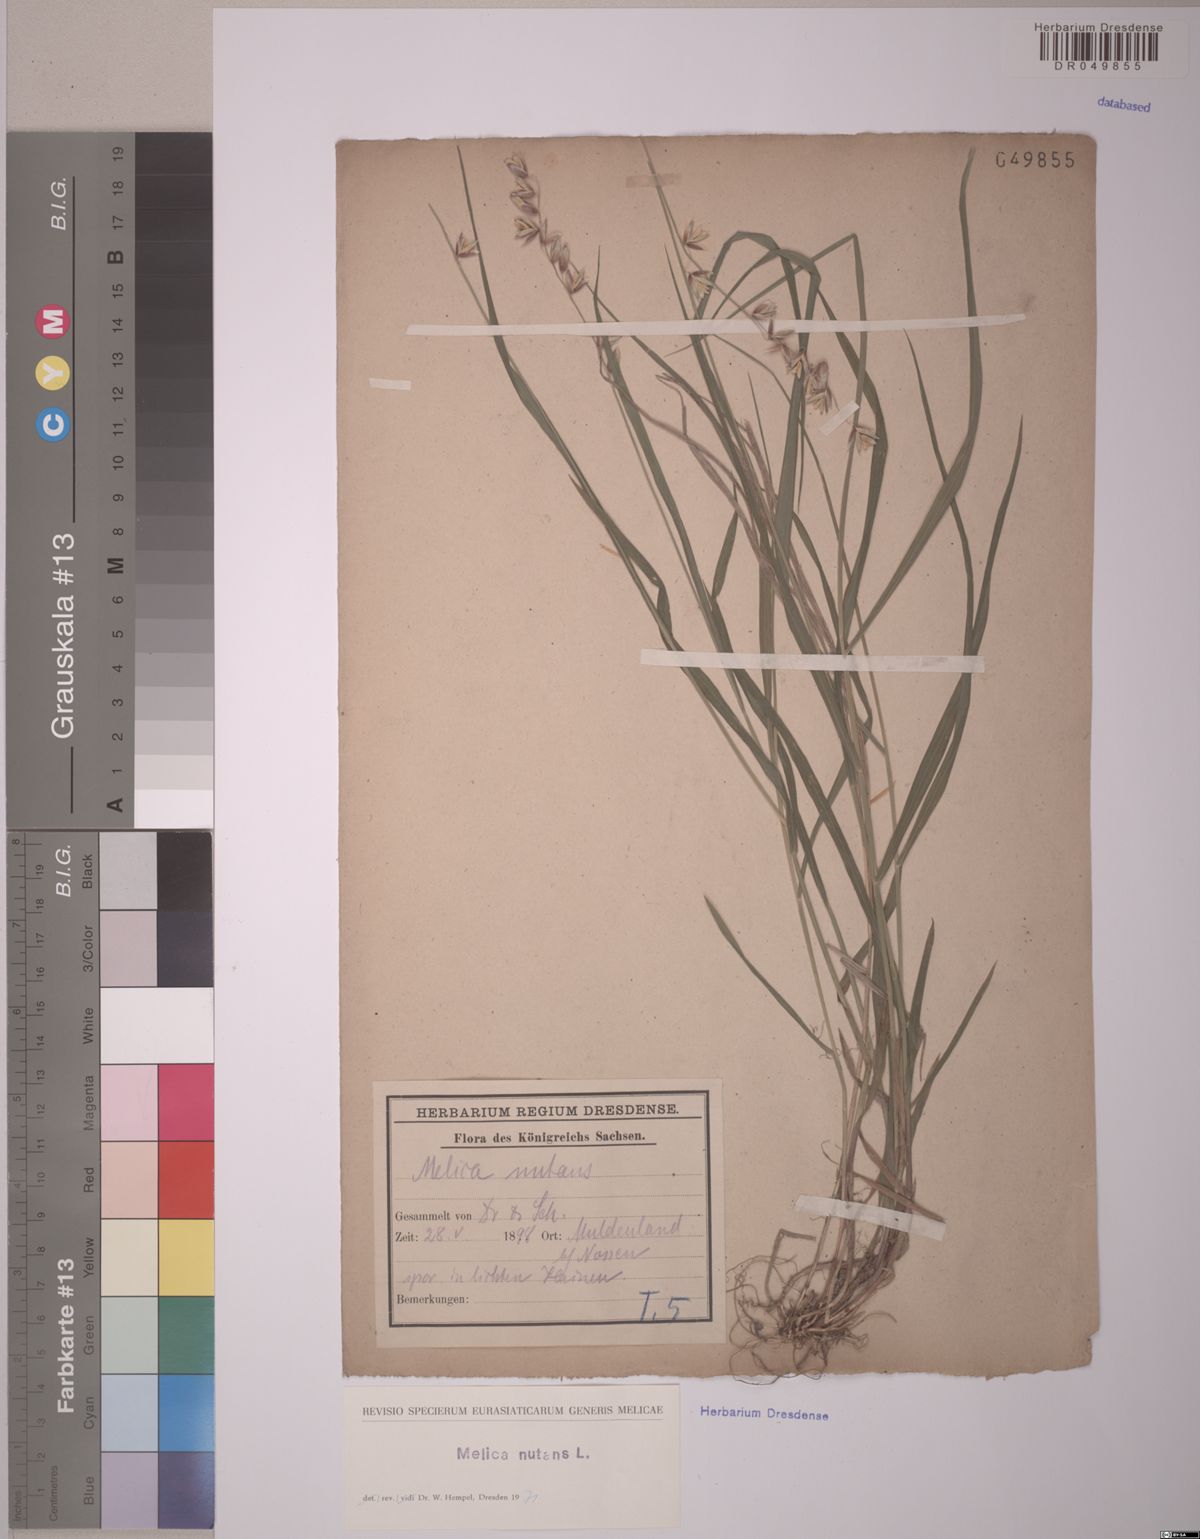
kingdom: Plantae
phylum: Tracheophyta
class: Liliopsida
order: Poales
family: Poaceae
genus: Melica
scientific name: Melica nutans
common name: Mountain melick
